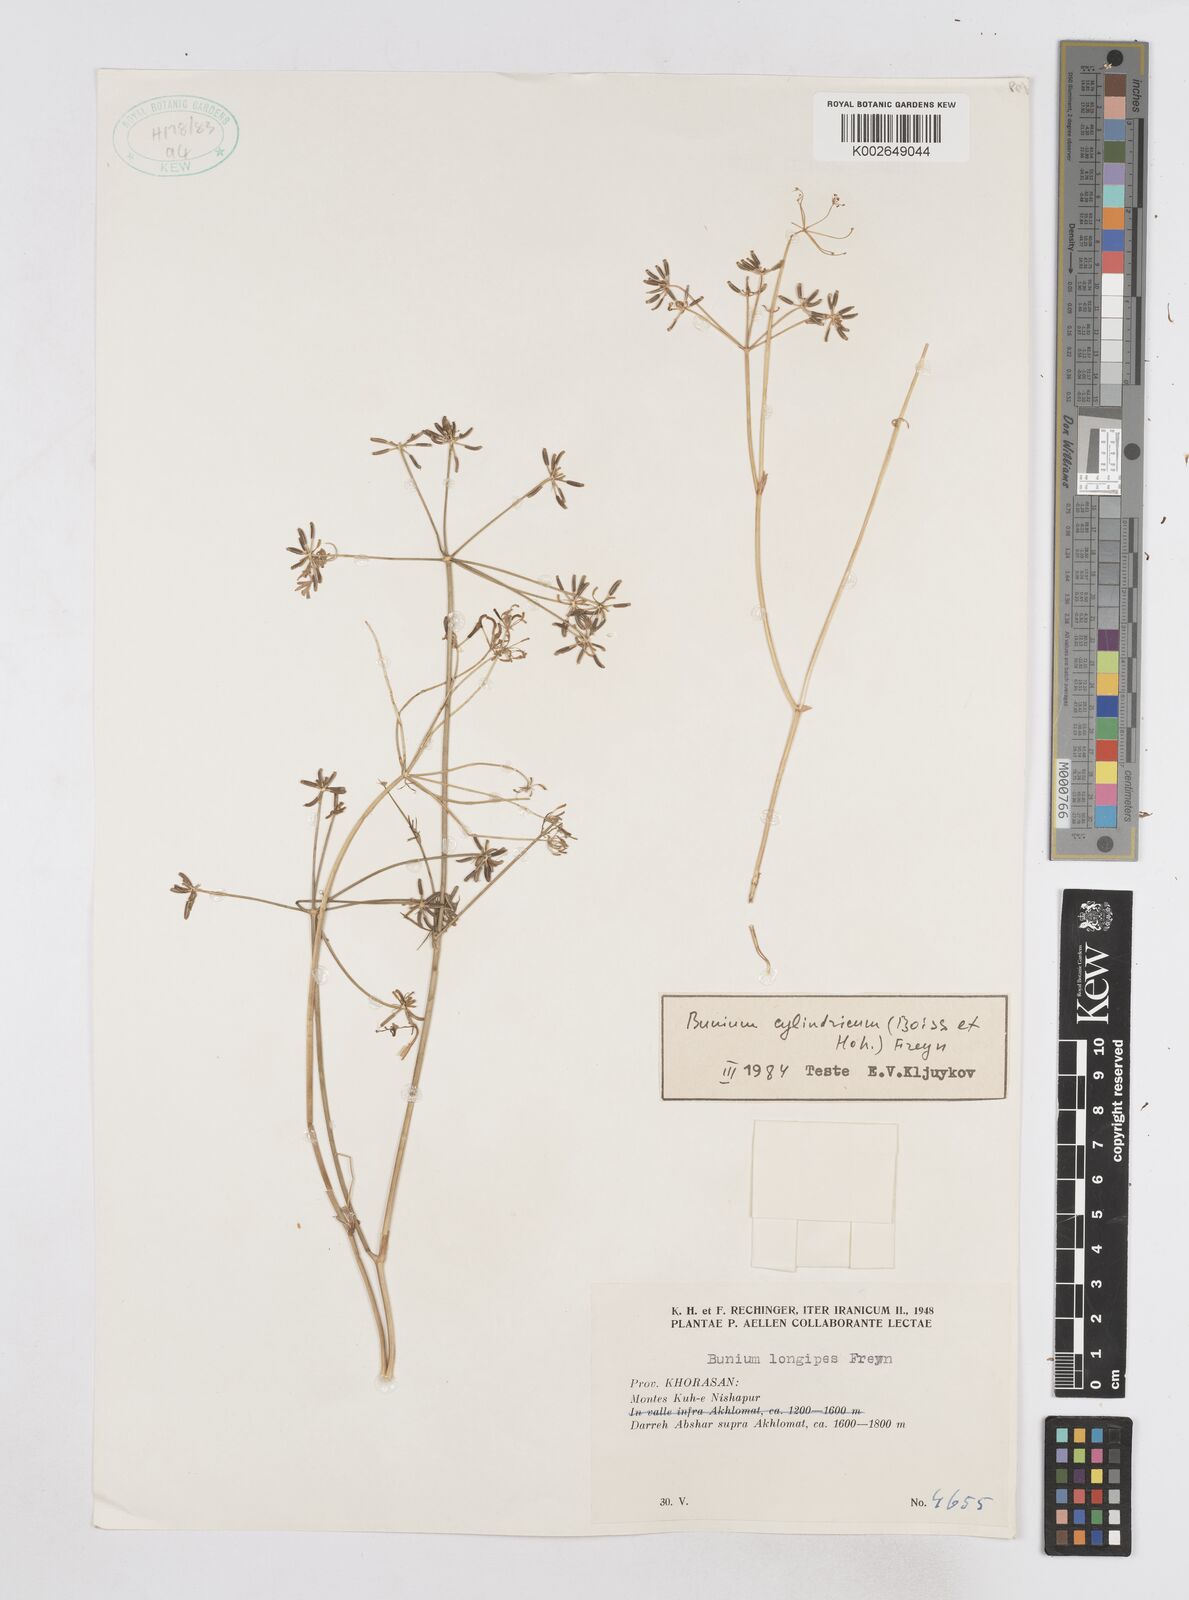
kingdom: Plantae
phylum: Tracheophyta
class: Magnoliopsida
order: Apiales
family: Apiaceae
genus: Elwendia
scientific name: Elwendia cylindrica
